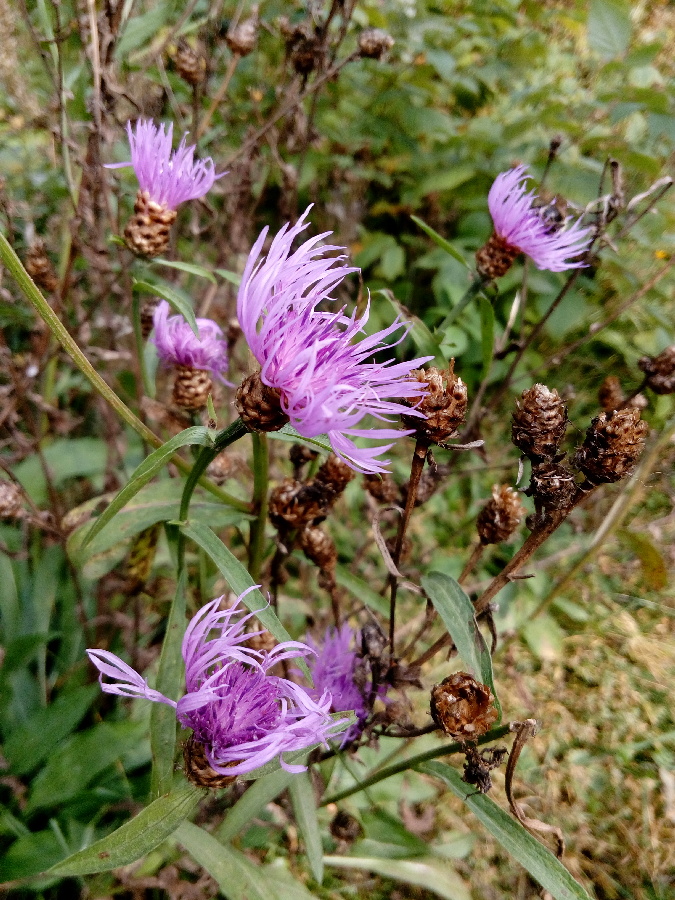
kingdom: Plantae
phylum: Tracheophyta
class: Magnoliopsida
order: Asterales
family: Asteraceae
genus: Centaurea
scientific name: Centaurea jacea
